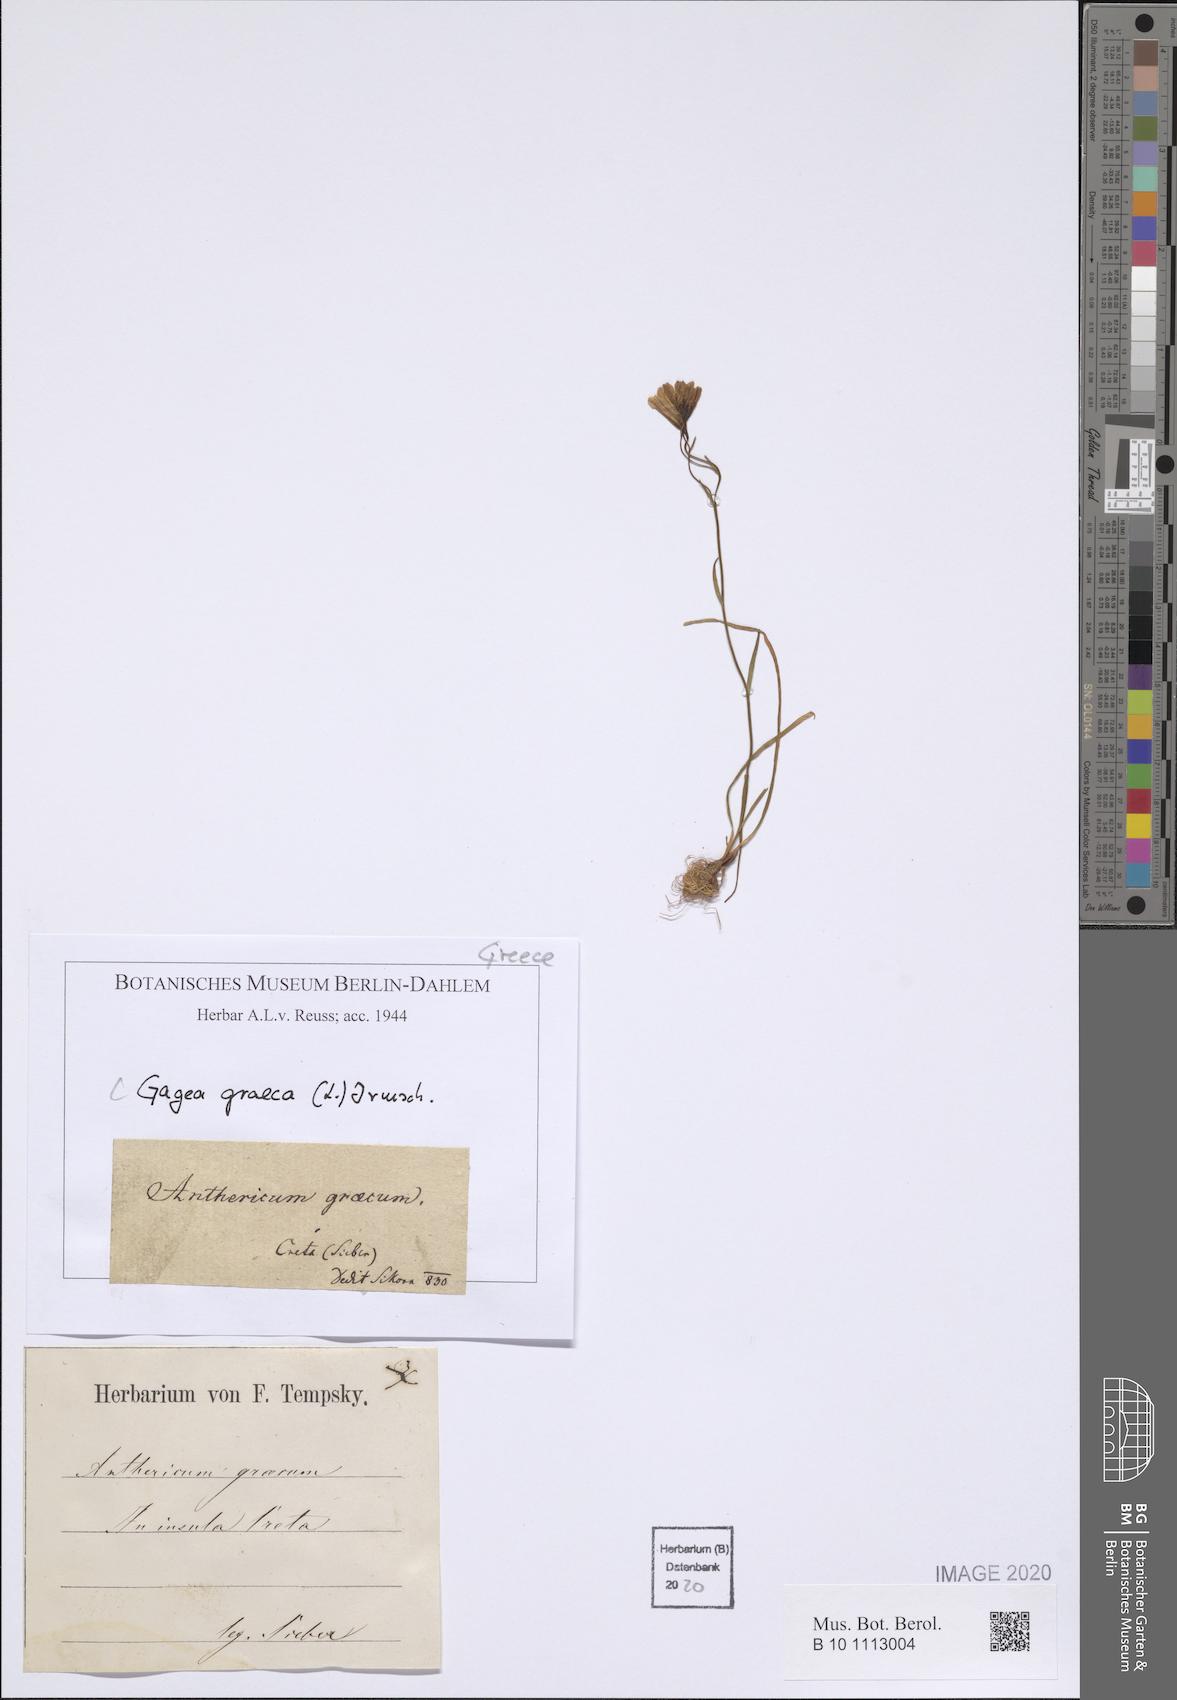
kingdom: Plantae
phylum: Tracheophyta
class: Liliopsida
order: Liliales
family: Liliaceae
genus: Gagea
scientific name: Gagea graeca
